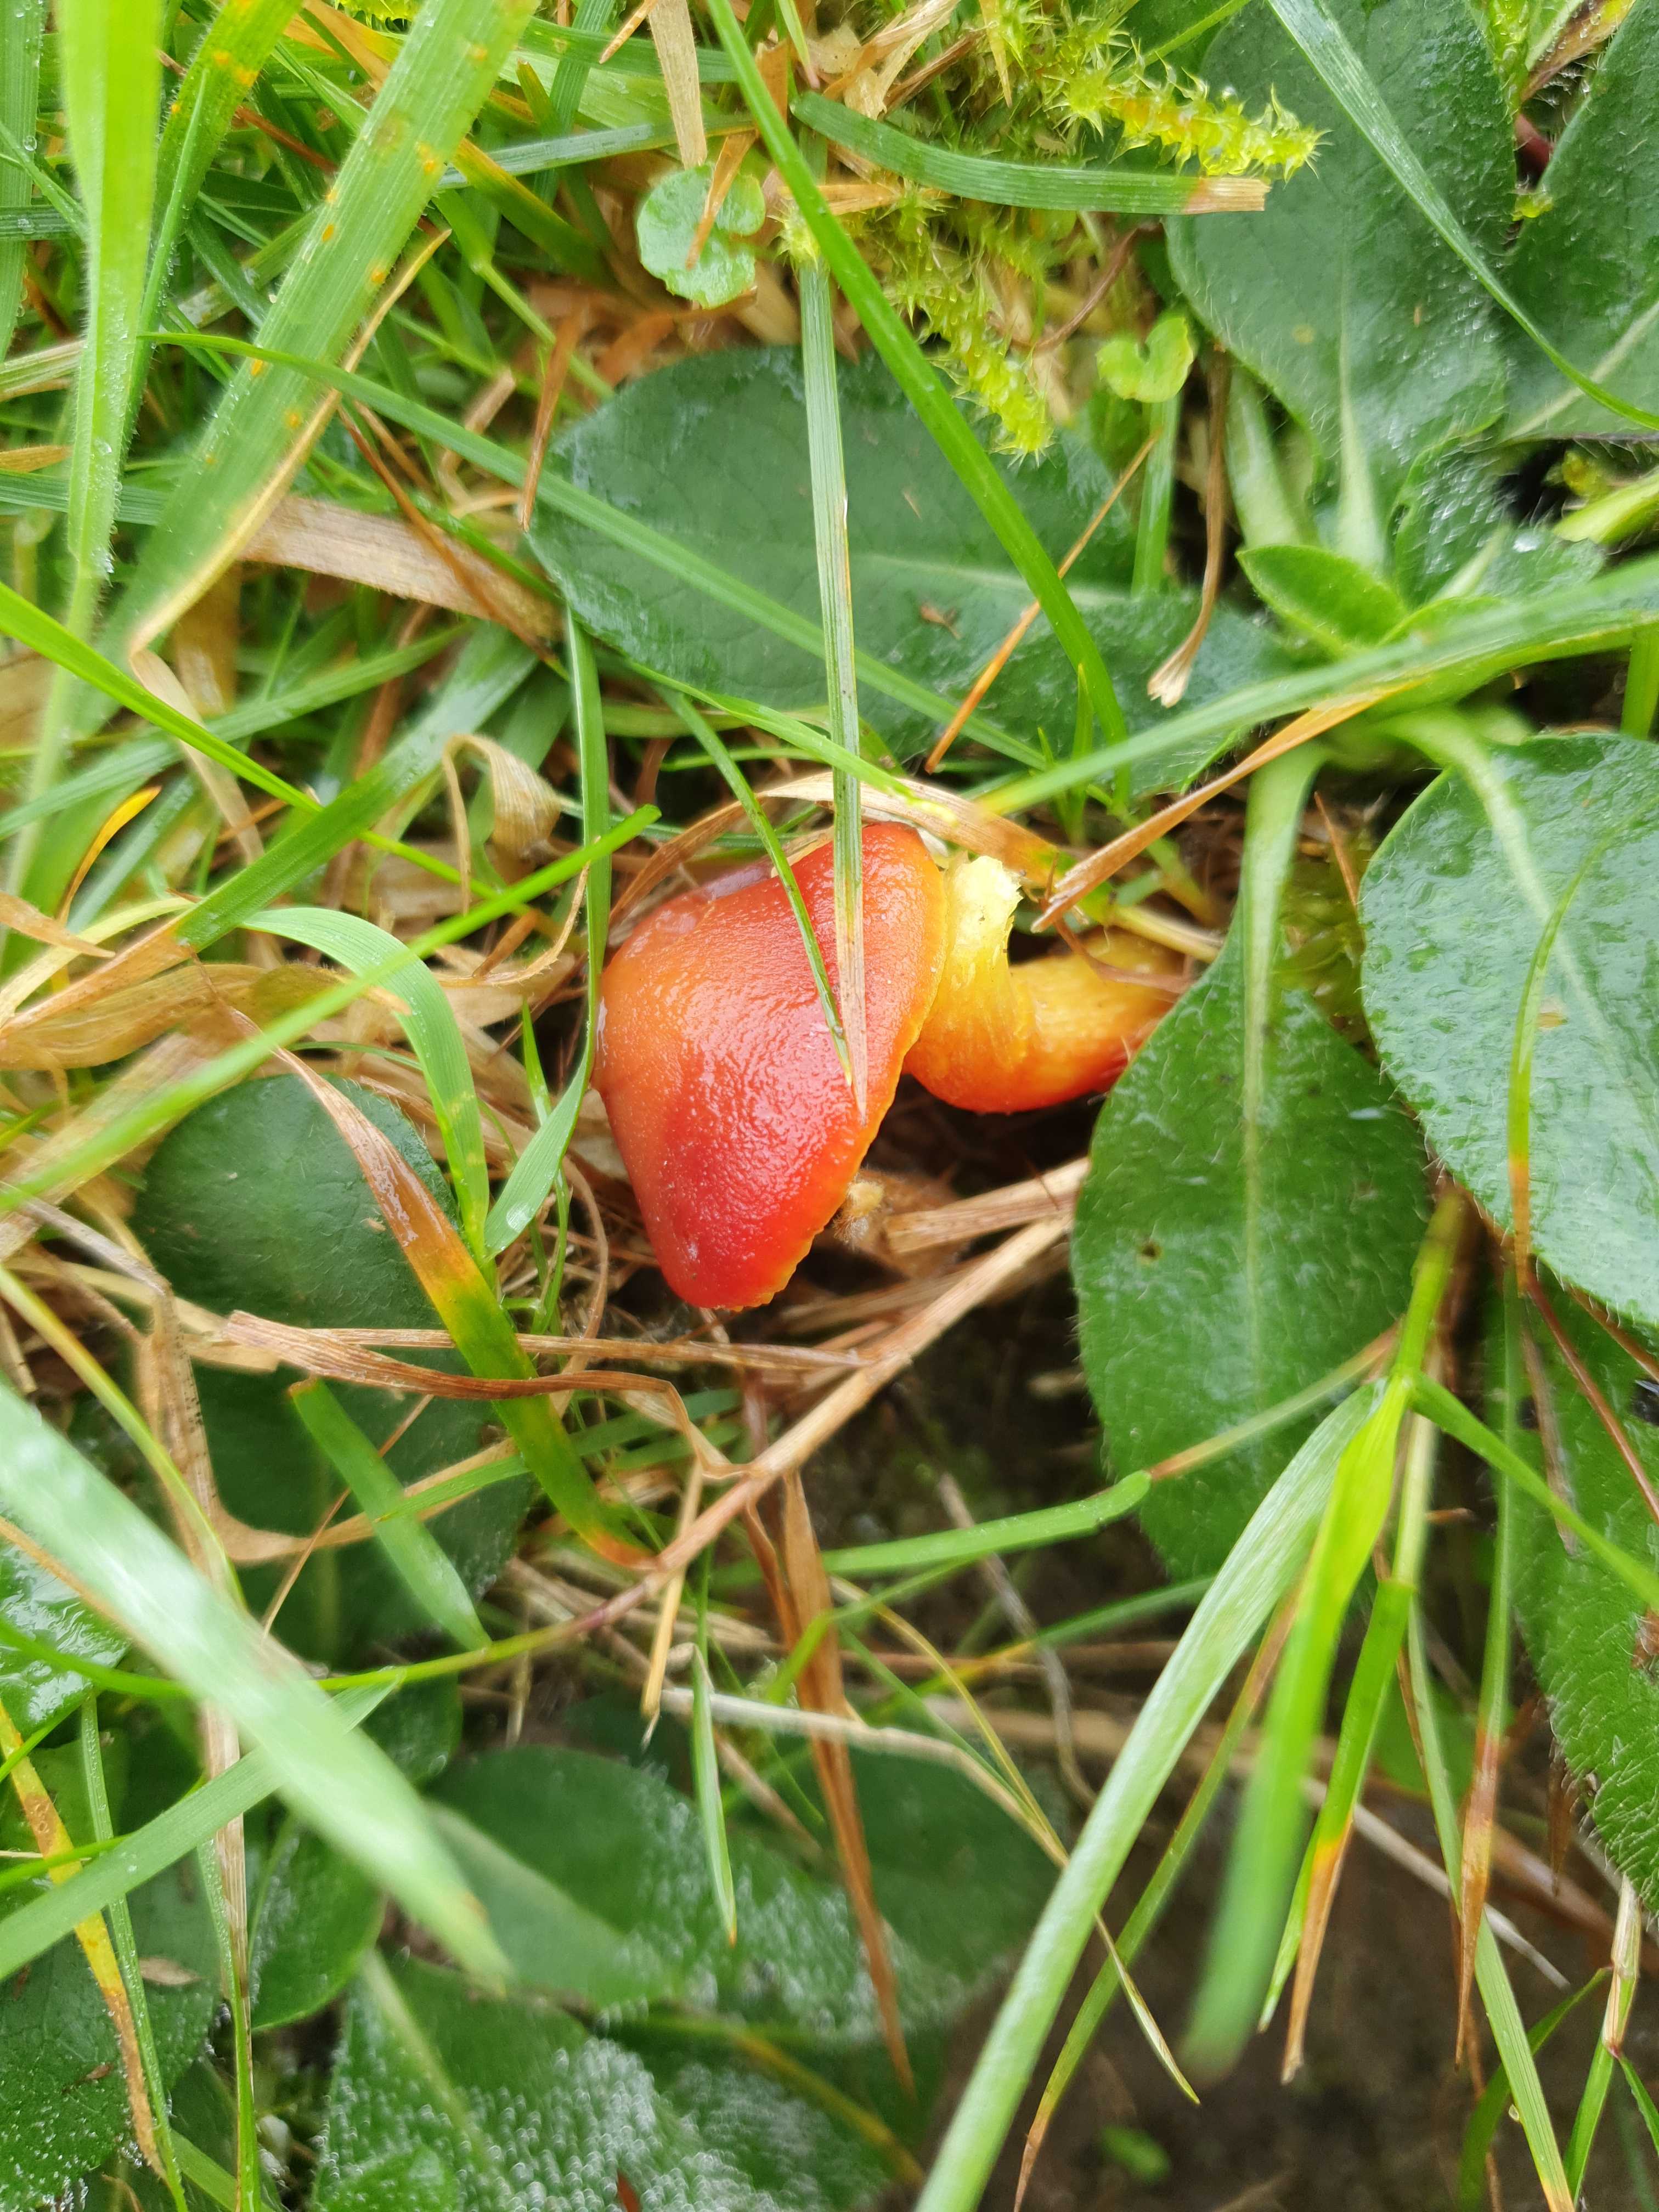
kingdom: Fungi
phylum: Basidiomycota
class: Agaricomycetes
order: Agaricales
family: Hygrophoraceae
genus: Hygrocybe
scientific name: Hygrocybe punicea
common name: skarlagen-vokshat
